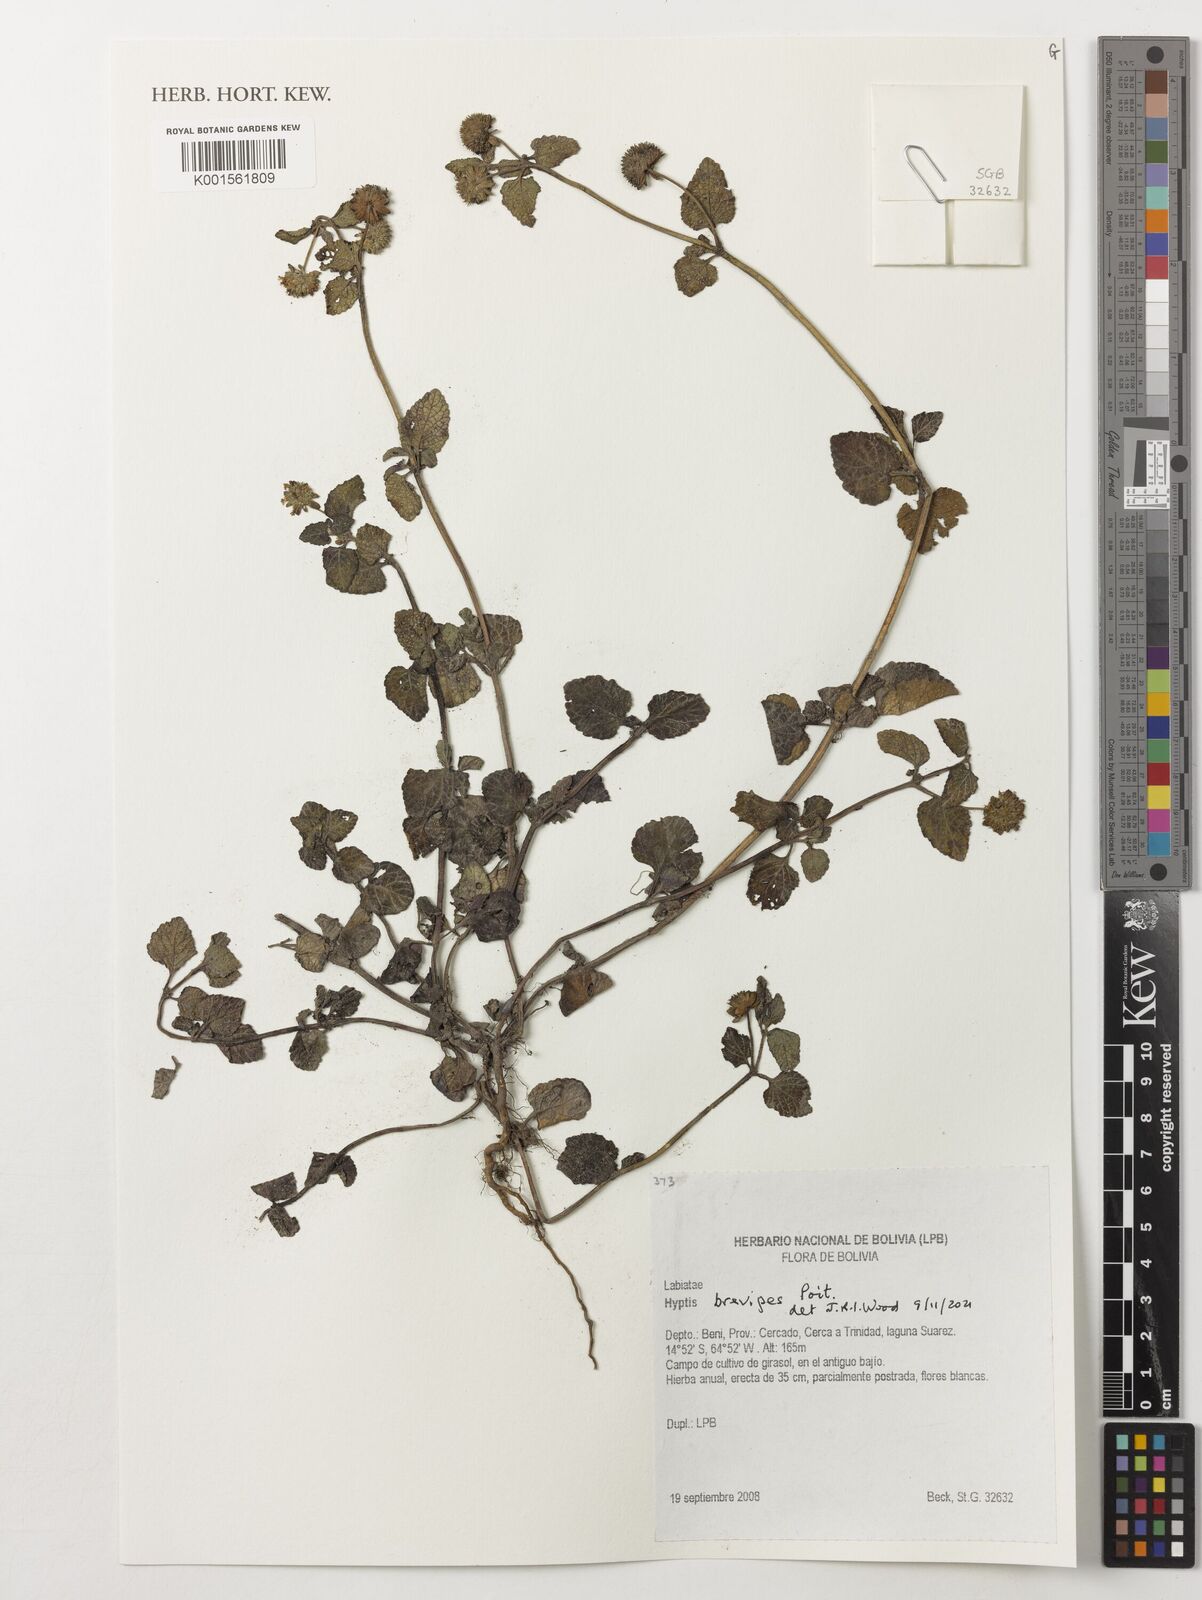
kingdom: Plantae
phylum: Tracheophyta
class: Magnoliopsida
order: Lamiales
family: Lamiaceae
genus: Hyptis
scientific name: Hyptis brevipes
